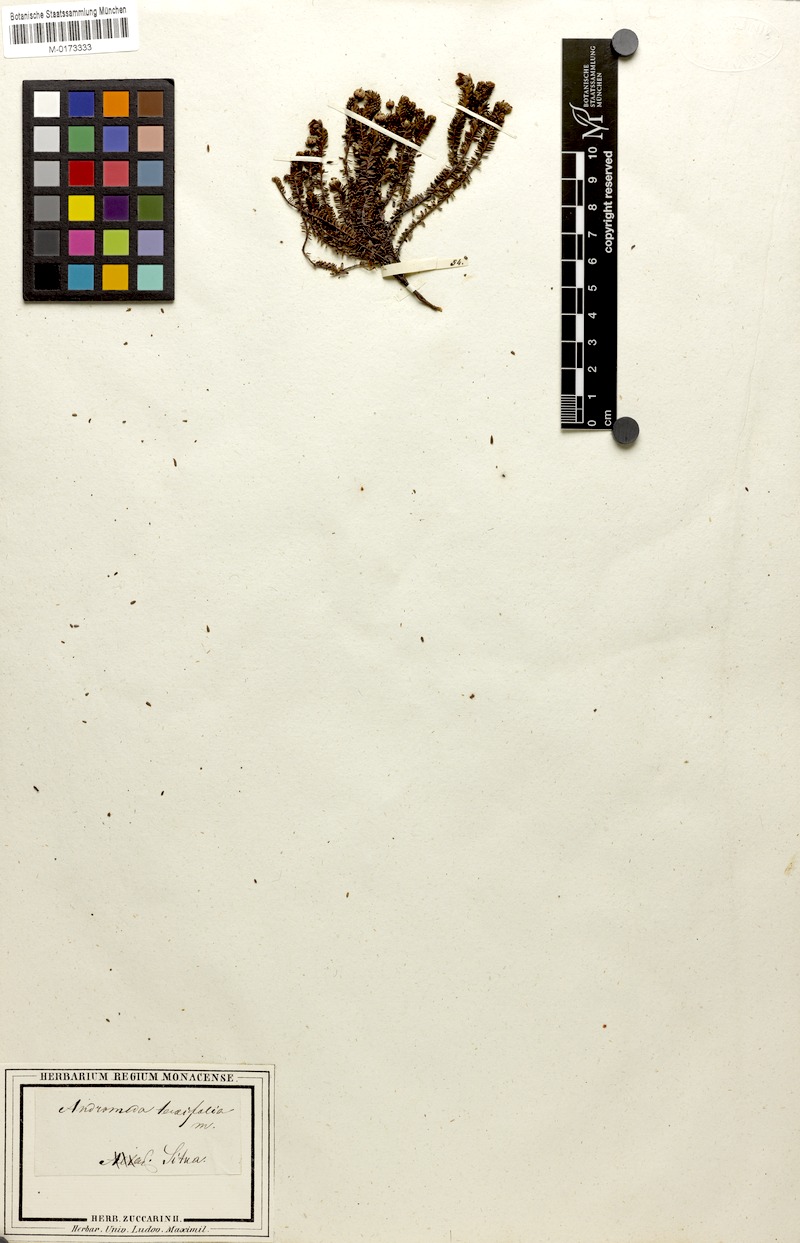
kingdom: Plantae
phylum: Tracheophyta
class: Magnoliopsida
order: Ericales
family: Ericaceae
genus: Harrimanella
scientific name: Harrimanella stelleriana
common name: Alaska bell heather
